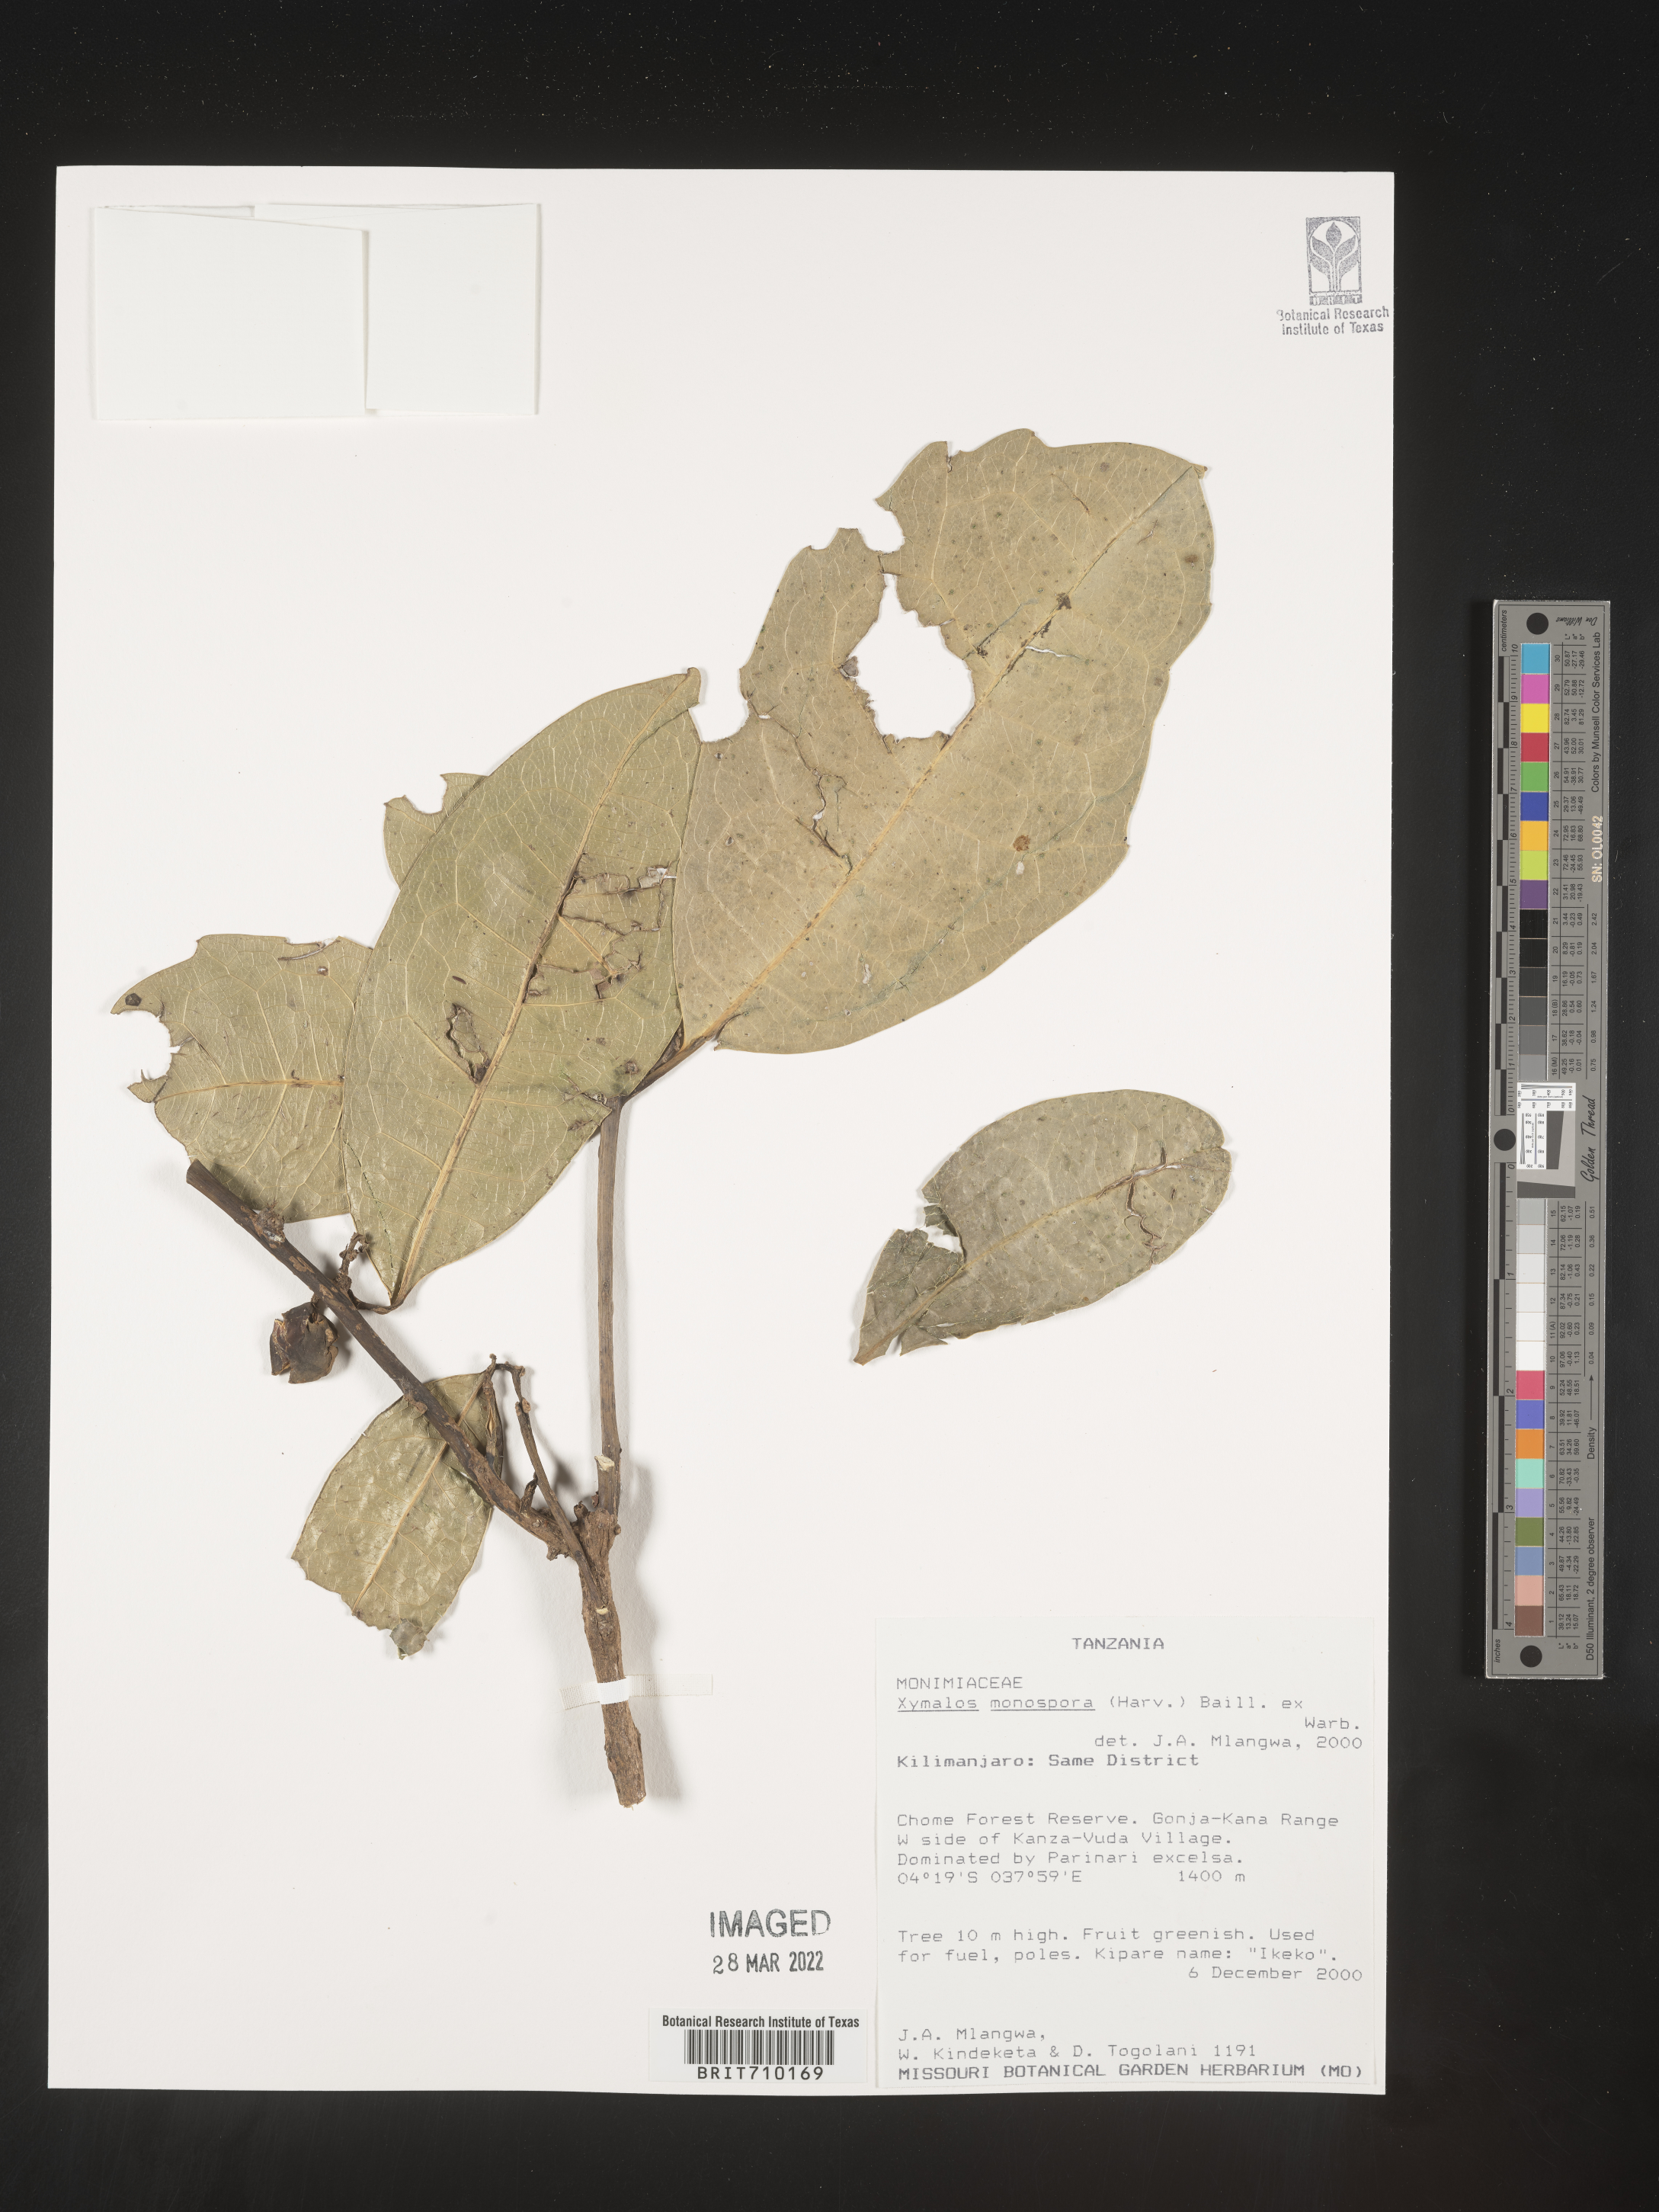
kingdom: Plantae
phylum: Tracheophyta
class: Magnoliopsida
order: Laurales
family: Monimiaceae
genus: Xymalos
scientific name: Xymalos
